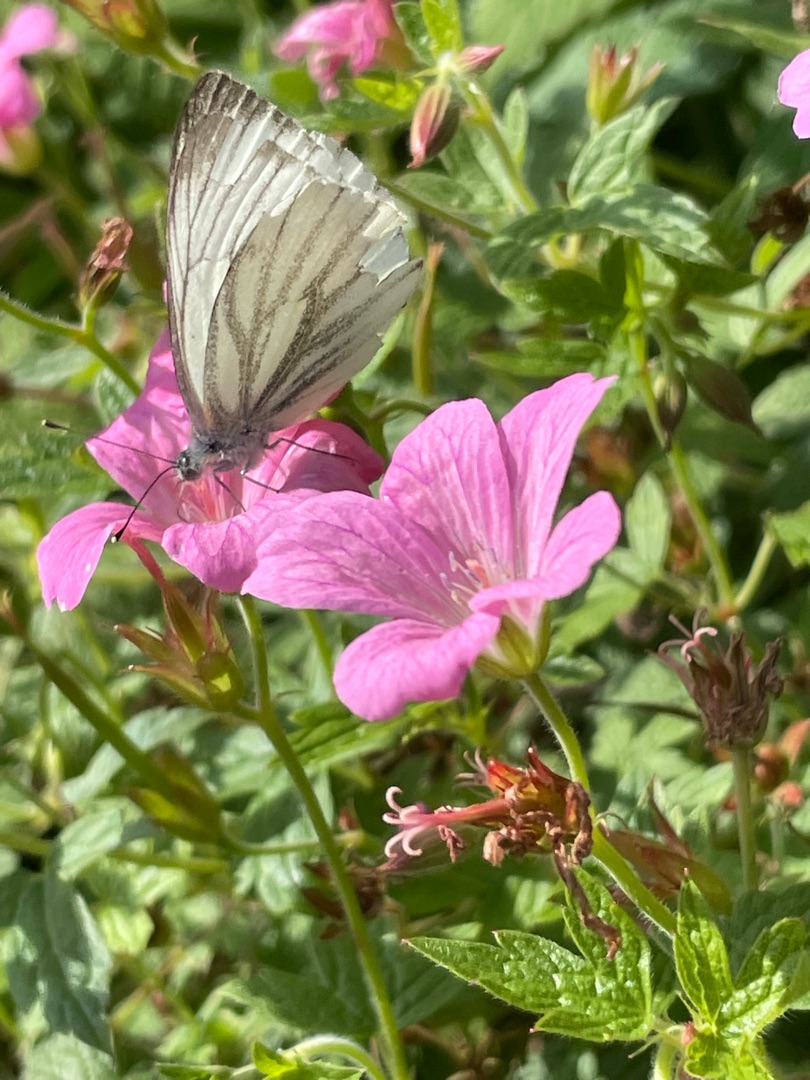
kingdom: Animalia
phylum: Arthropoda
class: Insecta
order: Lepidoptera
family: Pieridae
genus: Pieris
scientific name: Pieris napi
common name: Grønåret kålsommerfugl
